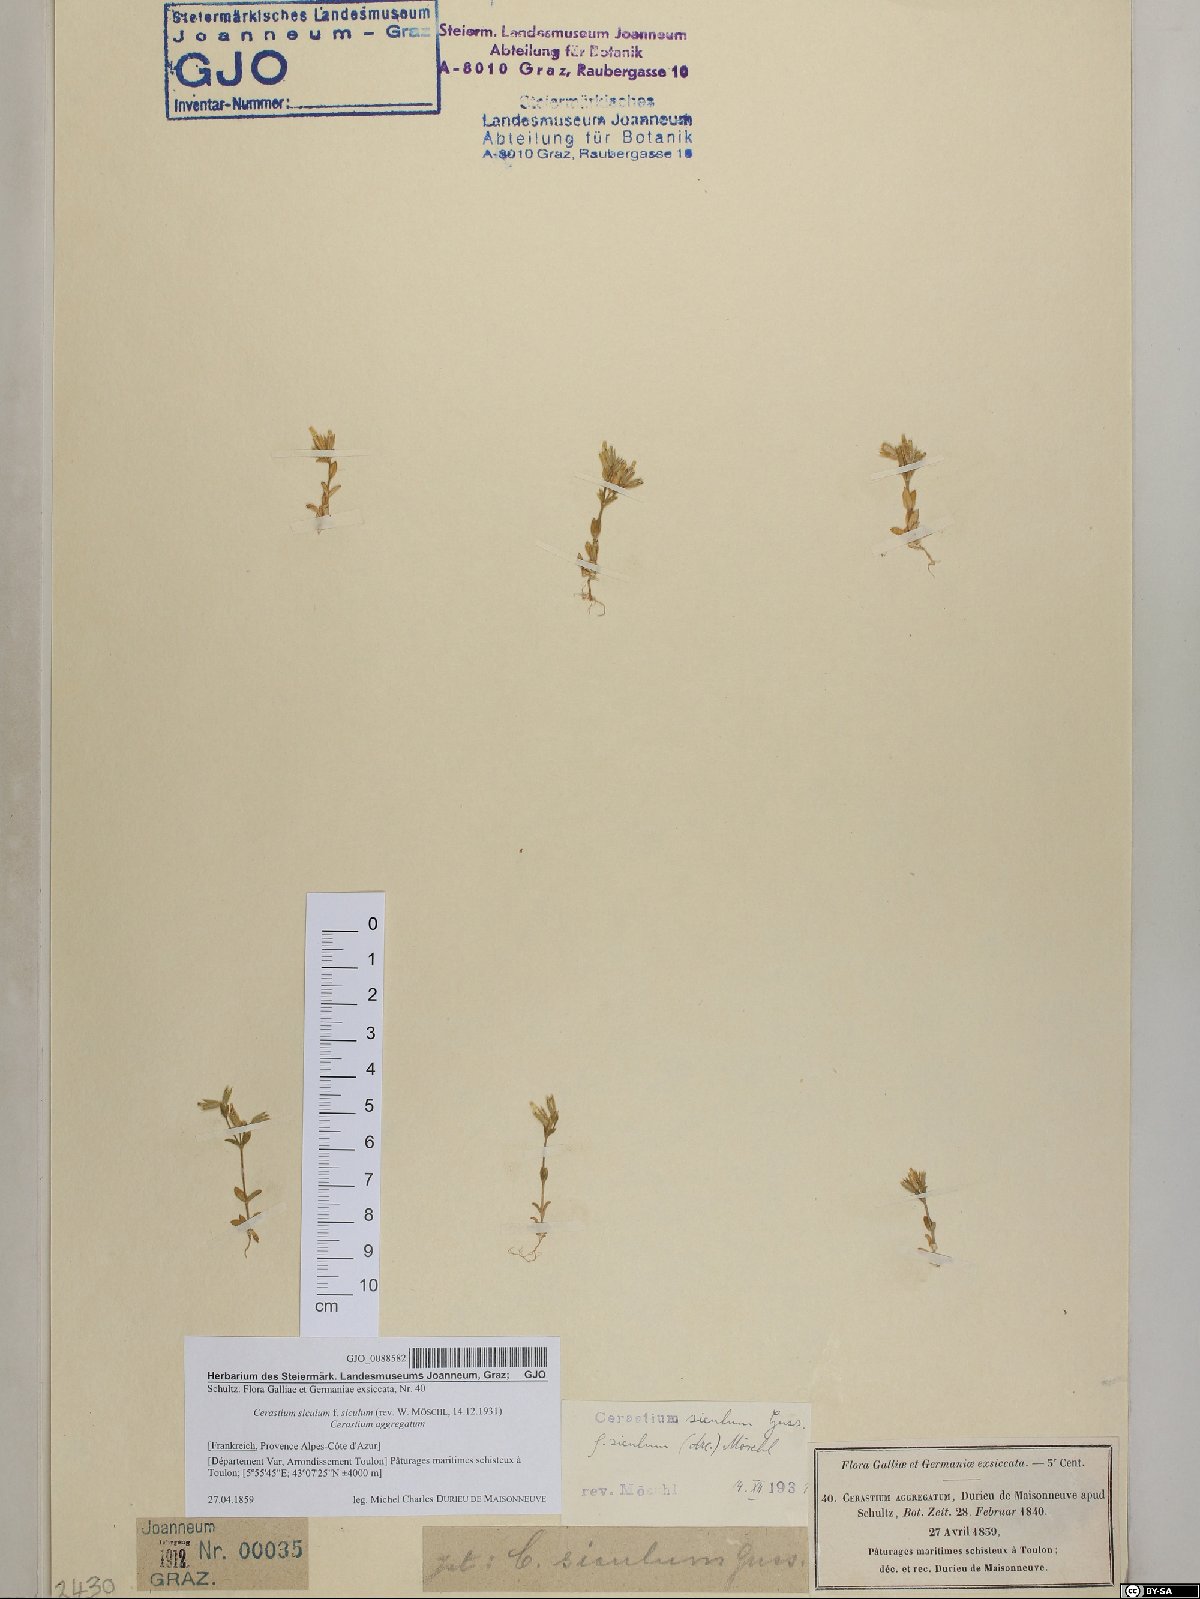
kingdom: Plantae
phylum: Tracheophyta
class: Magnoliopsida
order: Caryophyllales
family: Caryophyllaceae
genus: Cerastium
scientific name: Cerastium siculum
